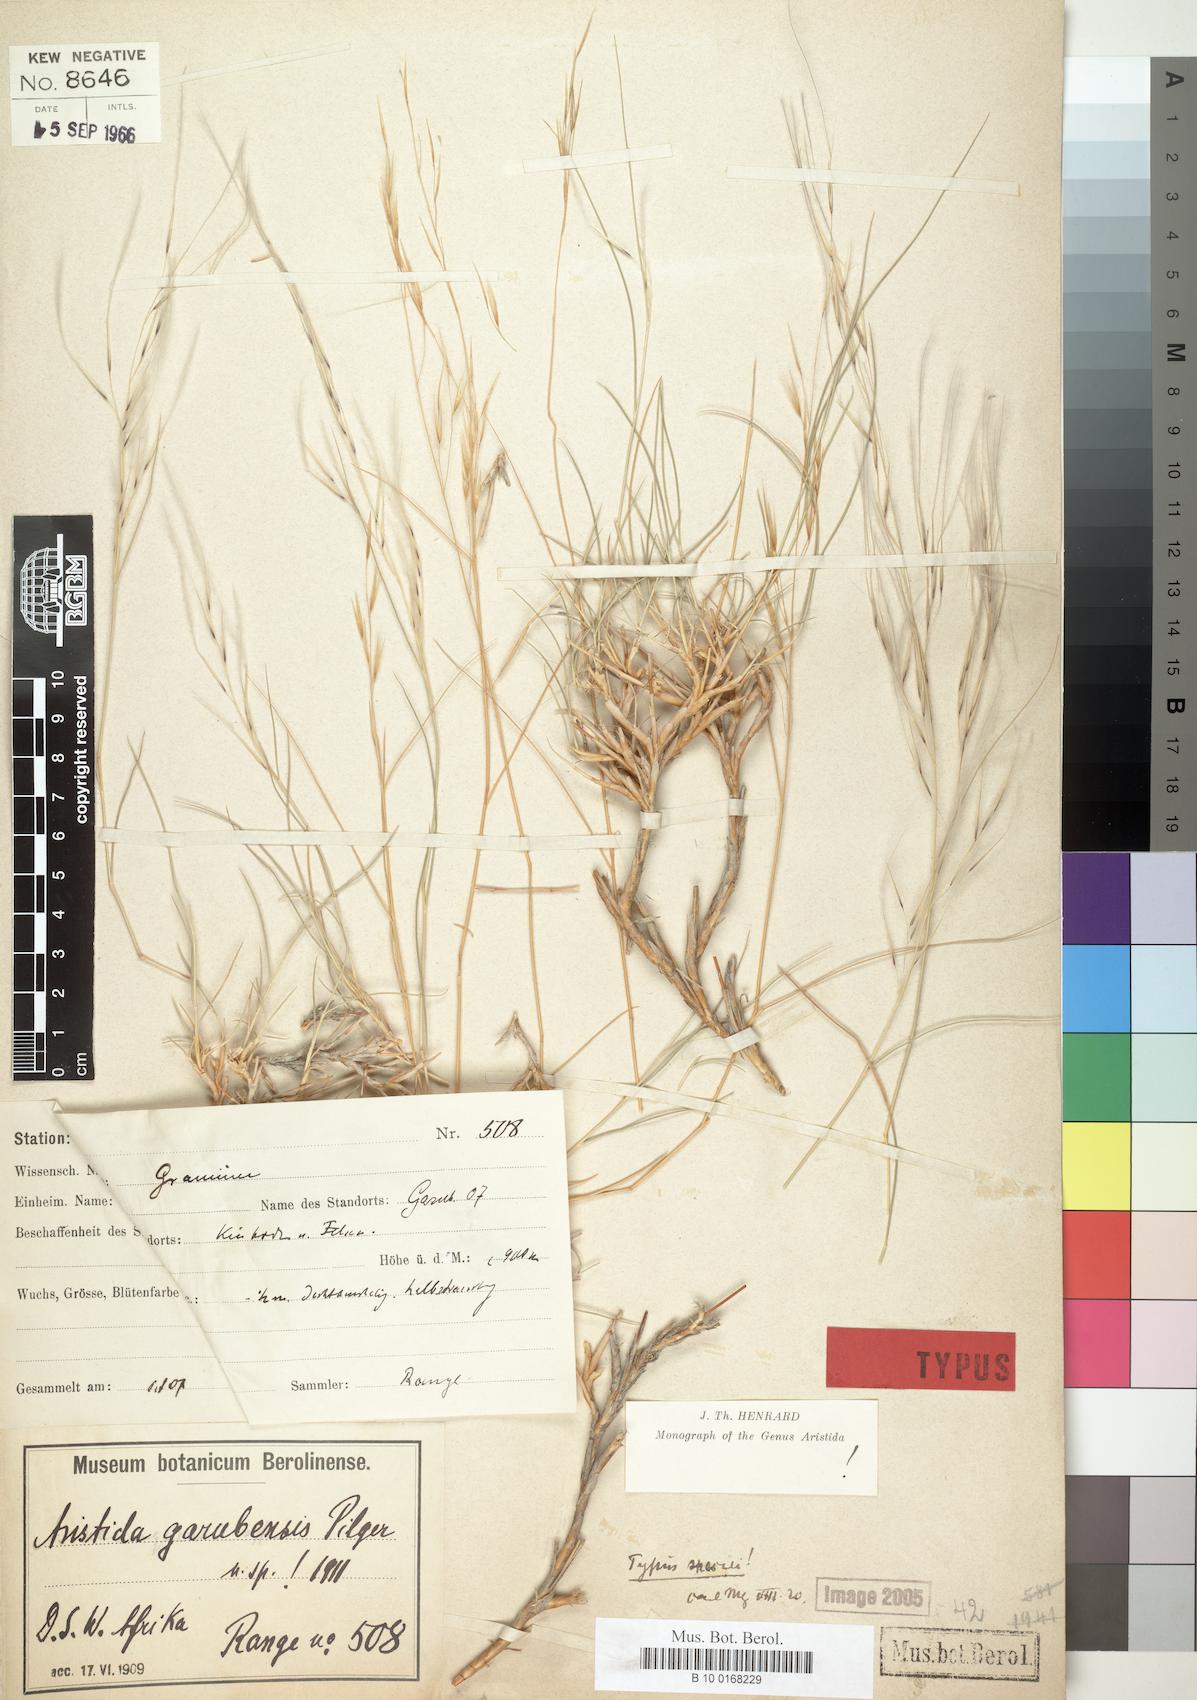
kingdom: Plantae
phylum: Tracheophyta
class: Liliopsida
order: Poales
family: Poaceae
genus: Stipagrostis
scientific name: Stipagrostis garubensis
